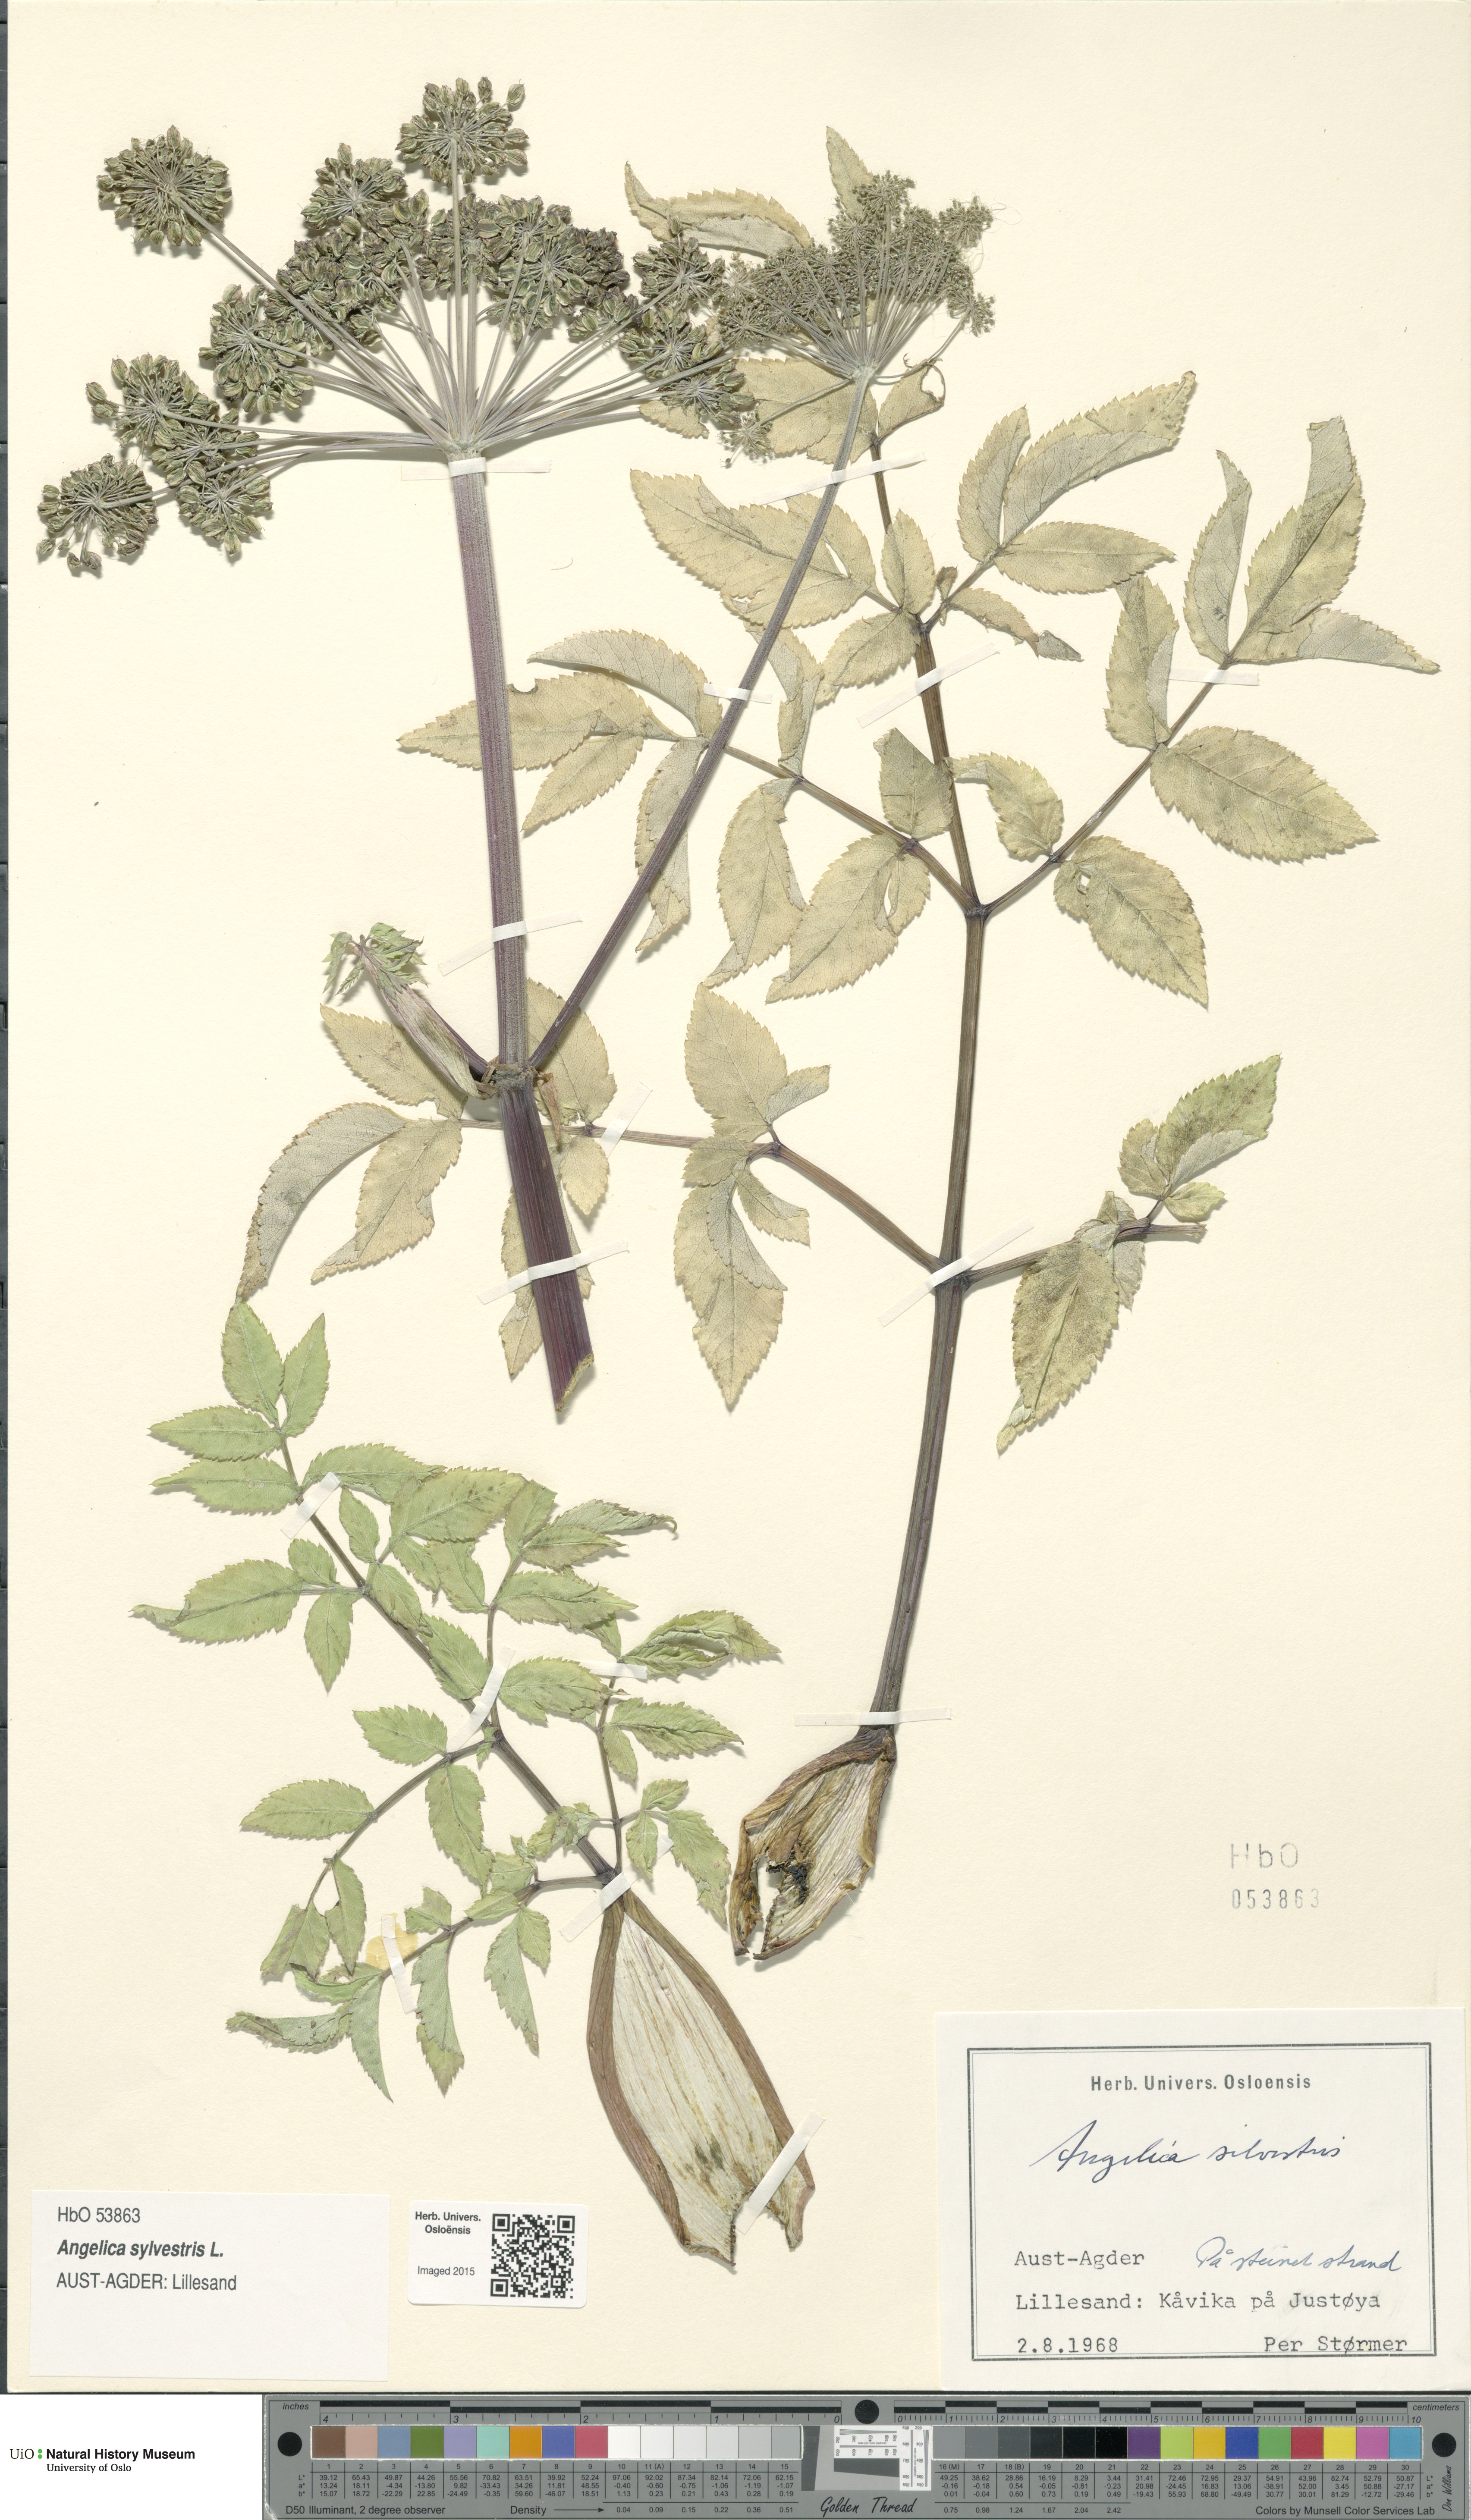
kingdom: Plantae
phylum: Tracheophyta
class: Magnoliopsida
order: Apiales
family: Apiaceae
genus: Angelica
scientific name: Angelica sylvestris
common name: Wild angelica
